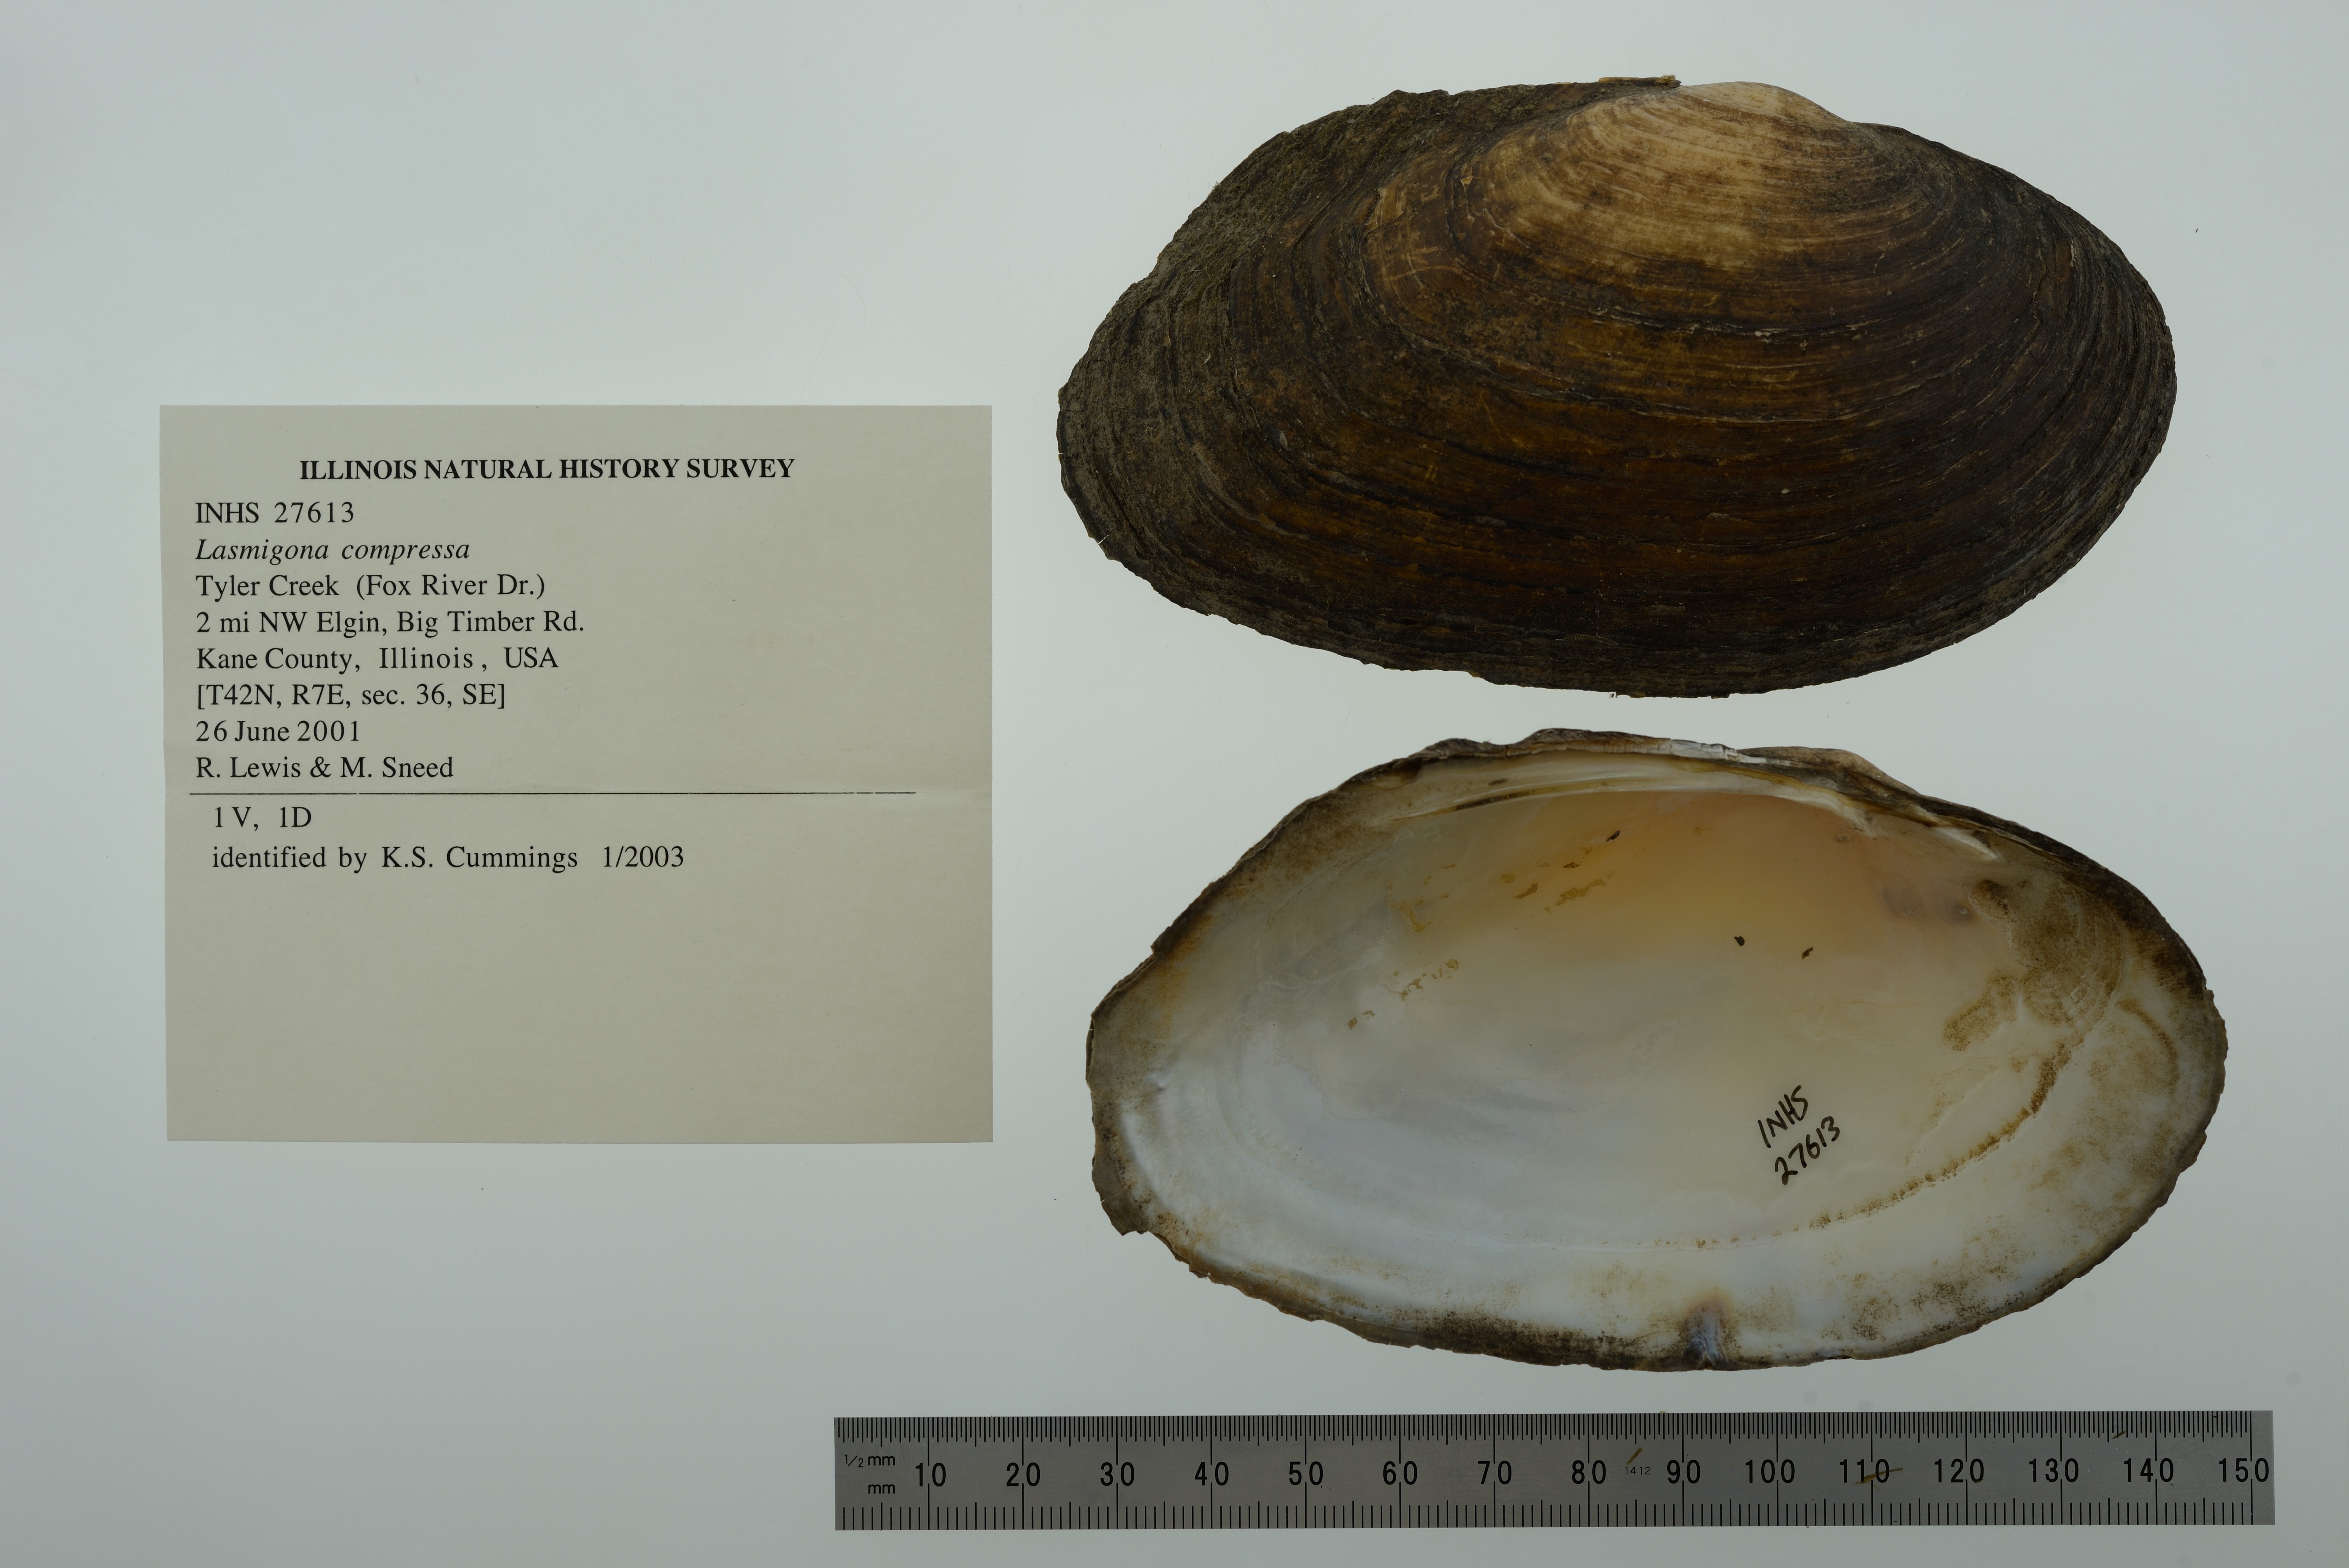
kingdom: Animalia
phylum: Mollusca
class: Bivalvia
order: Unionida
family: Unionidae
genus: Lasmigona
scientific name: Lasmigona compressa
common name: Creek heelsplitter
